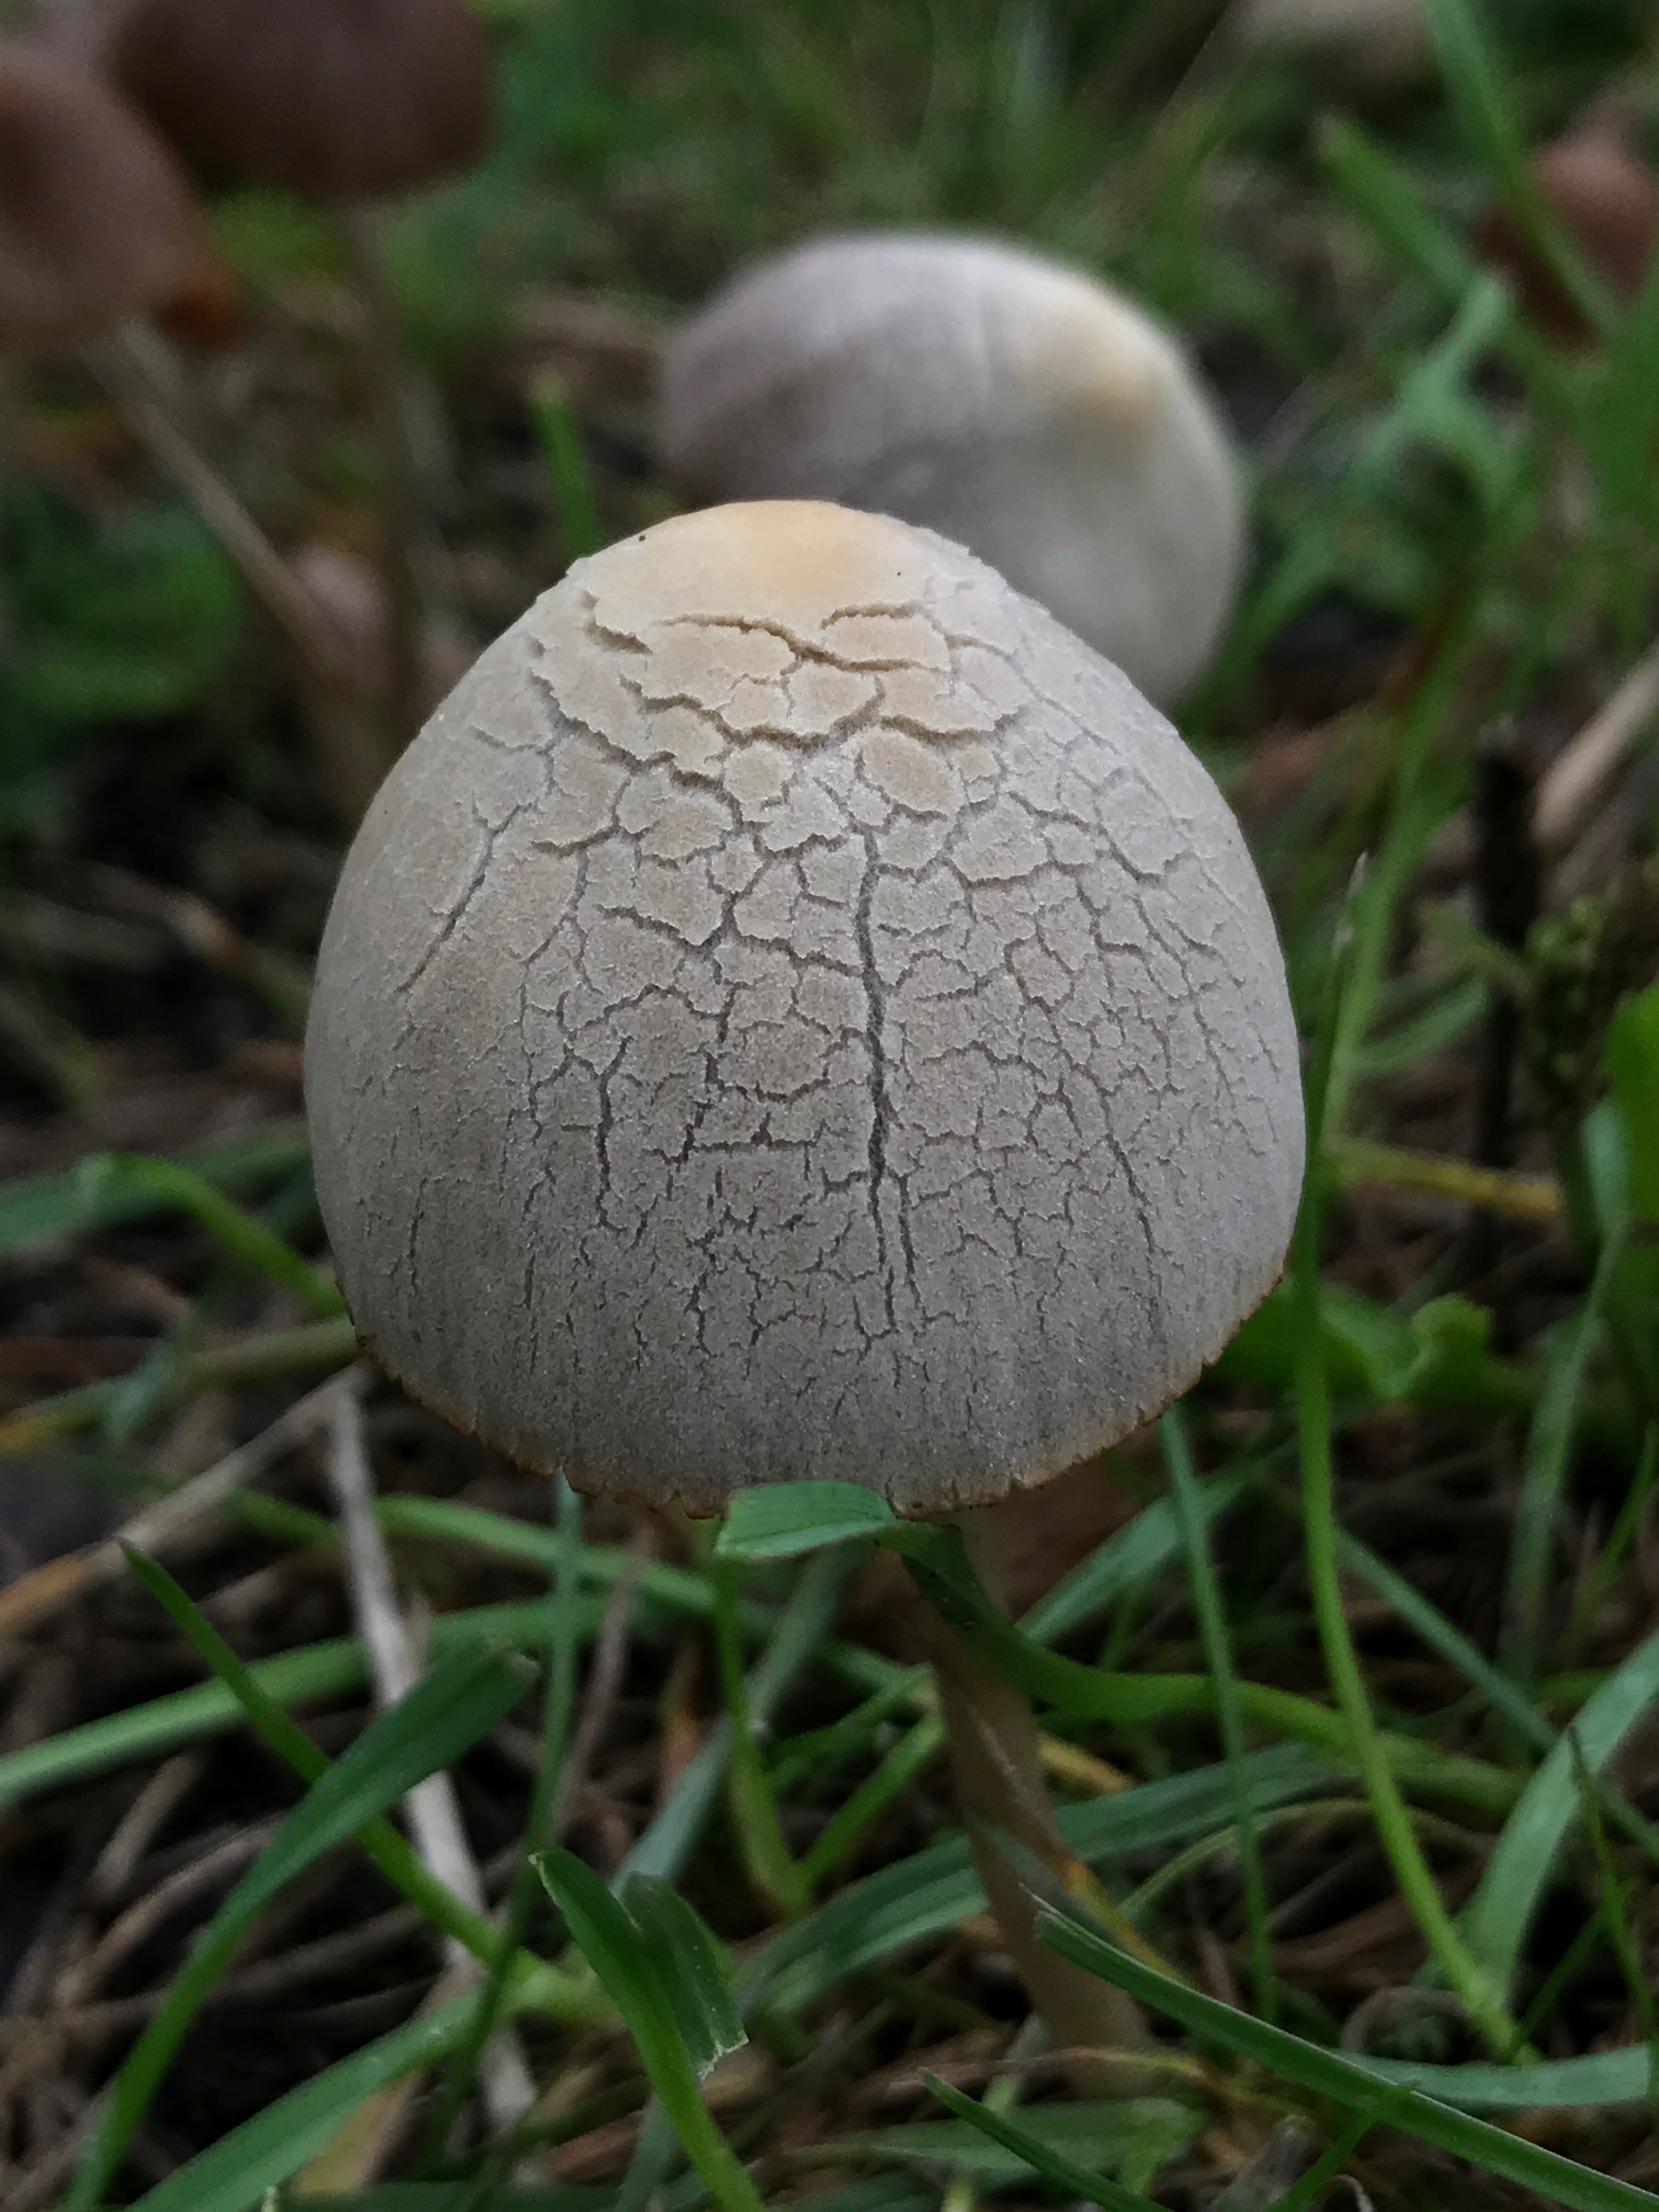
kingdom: Fungi
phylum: Basidiomycota
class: Agaricomycetes
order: Agaricales
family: Psathyrellaceae
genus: Psathyrella
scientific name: Psathyrella
